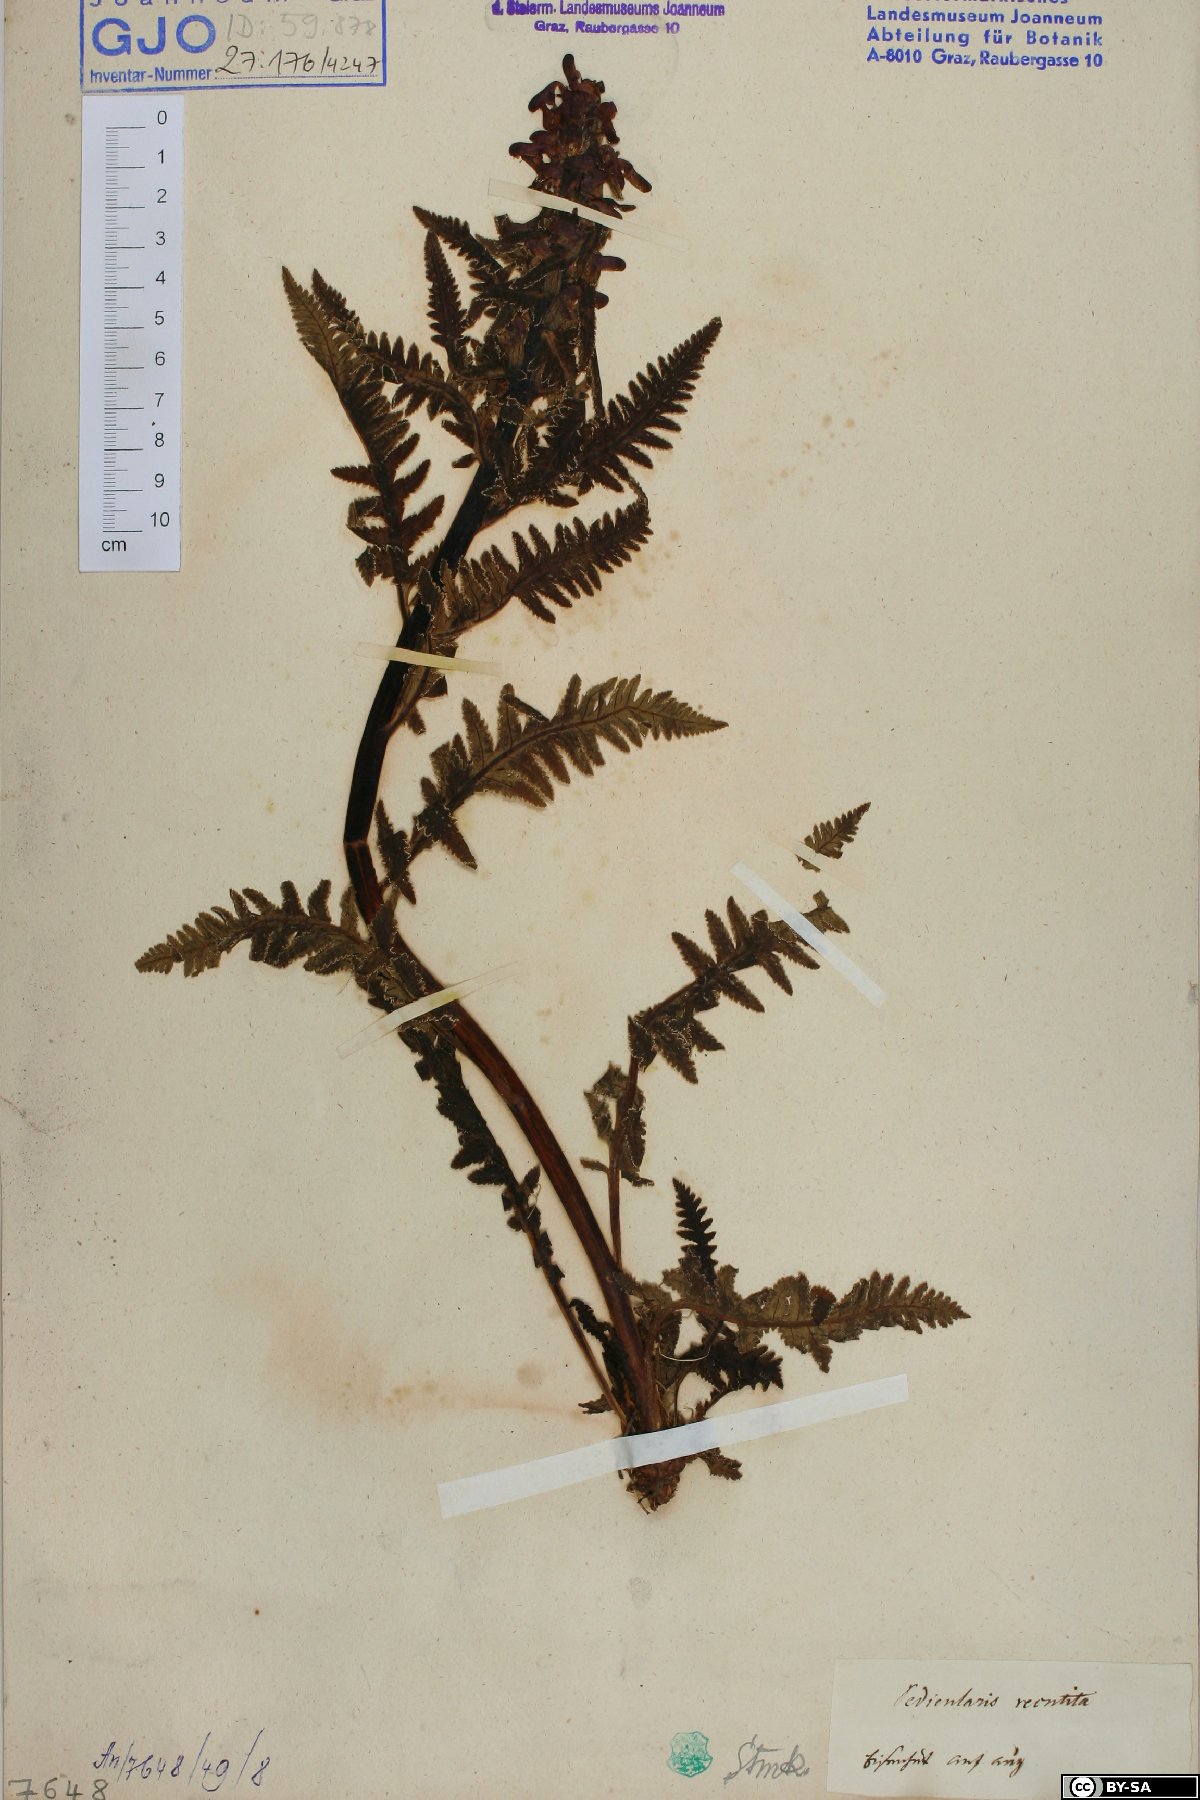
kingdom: Plantae
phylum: Tracheophyta
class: Magnoliopsida
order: Lamiales
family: Orobanchaceae
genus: Pedicularis
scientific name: Pedicularis recutita
